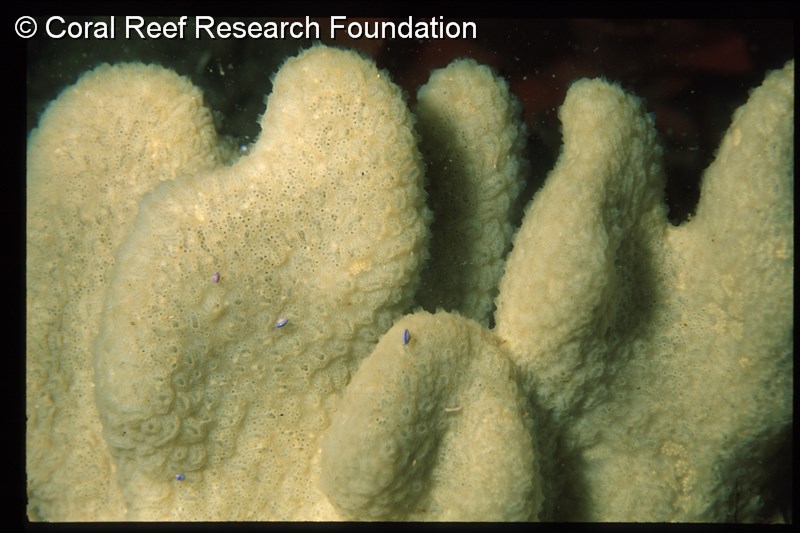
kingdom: Animalia
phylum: Chordata
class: Ascidiacea
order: Aplousobranchia
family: Polyclinidae
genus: Aplidium
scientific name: Aplidium
